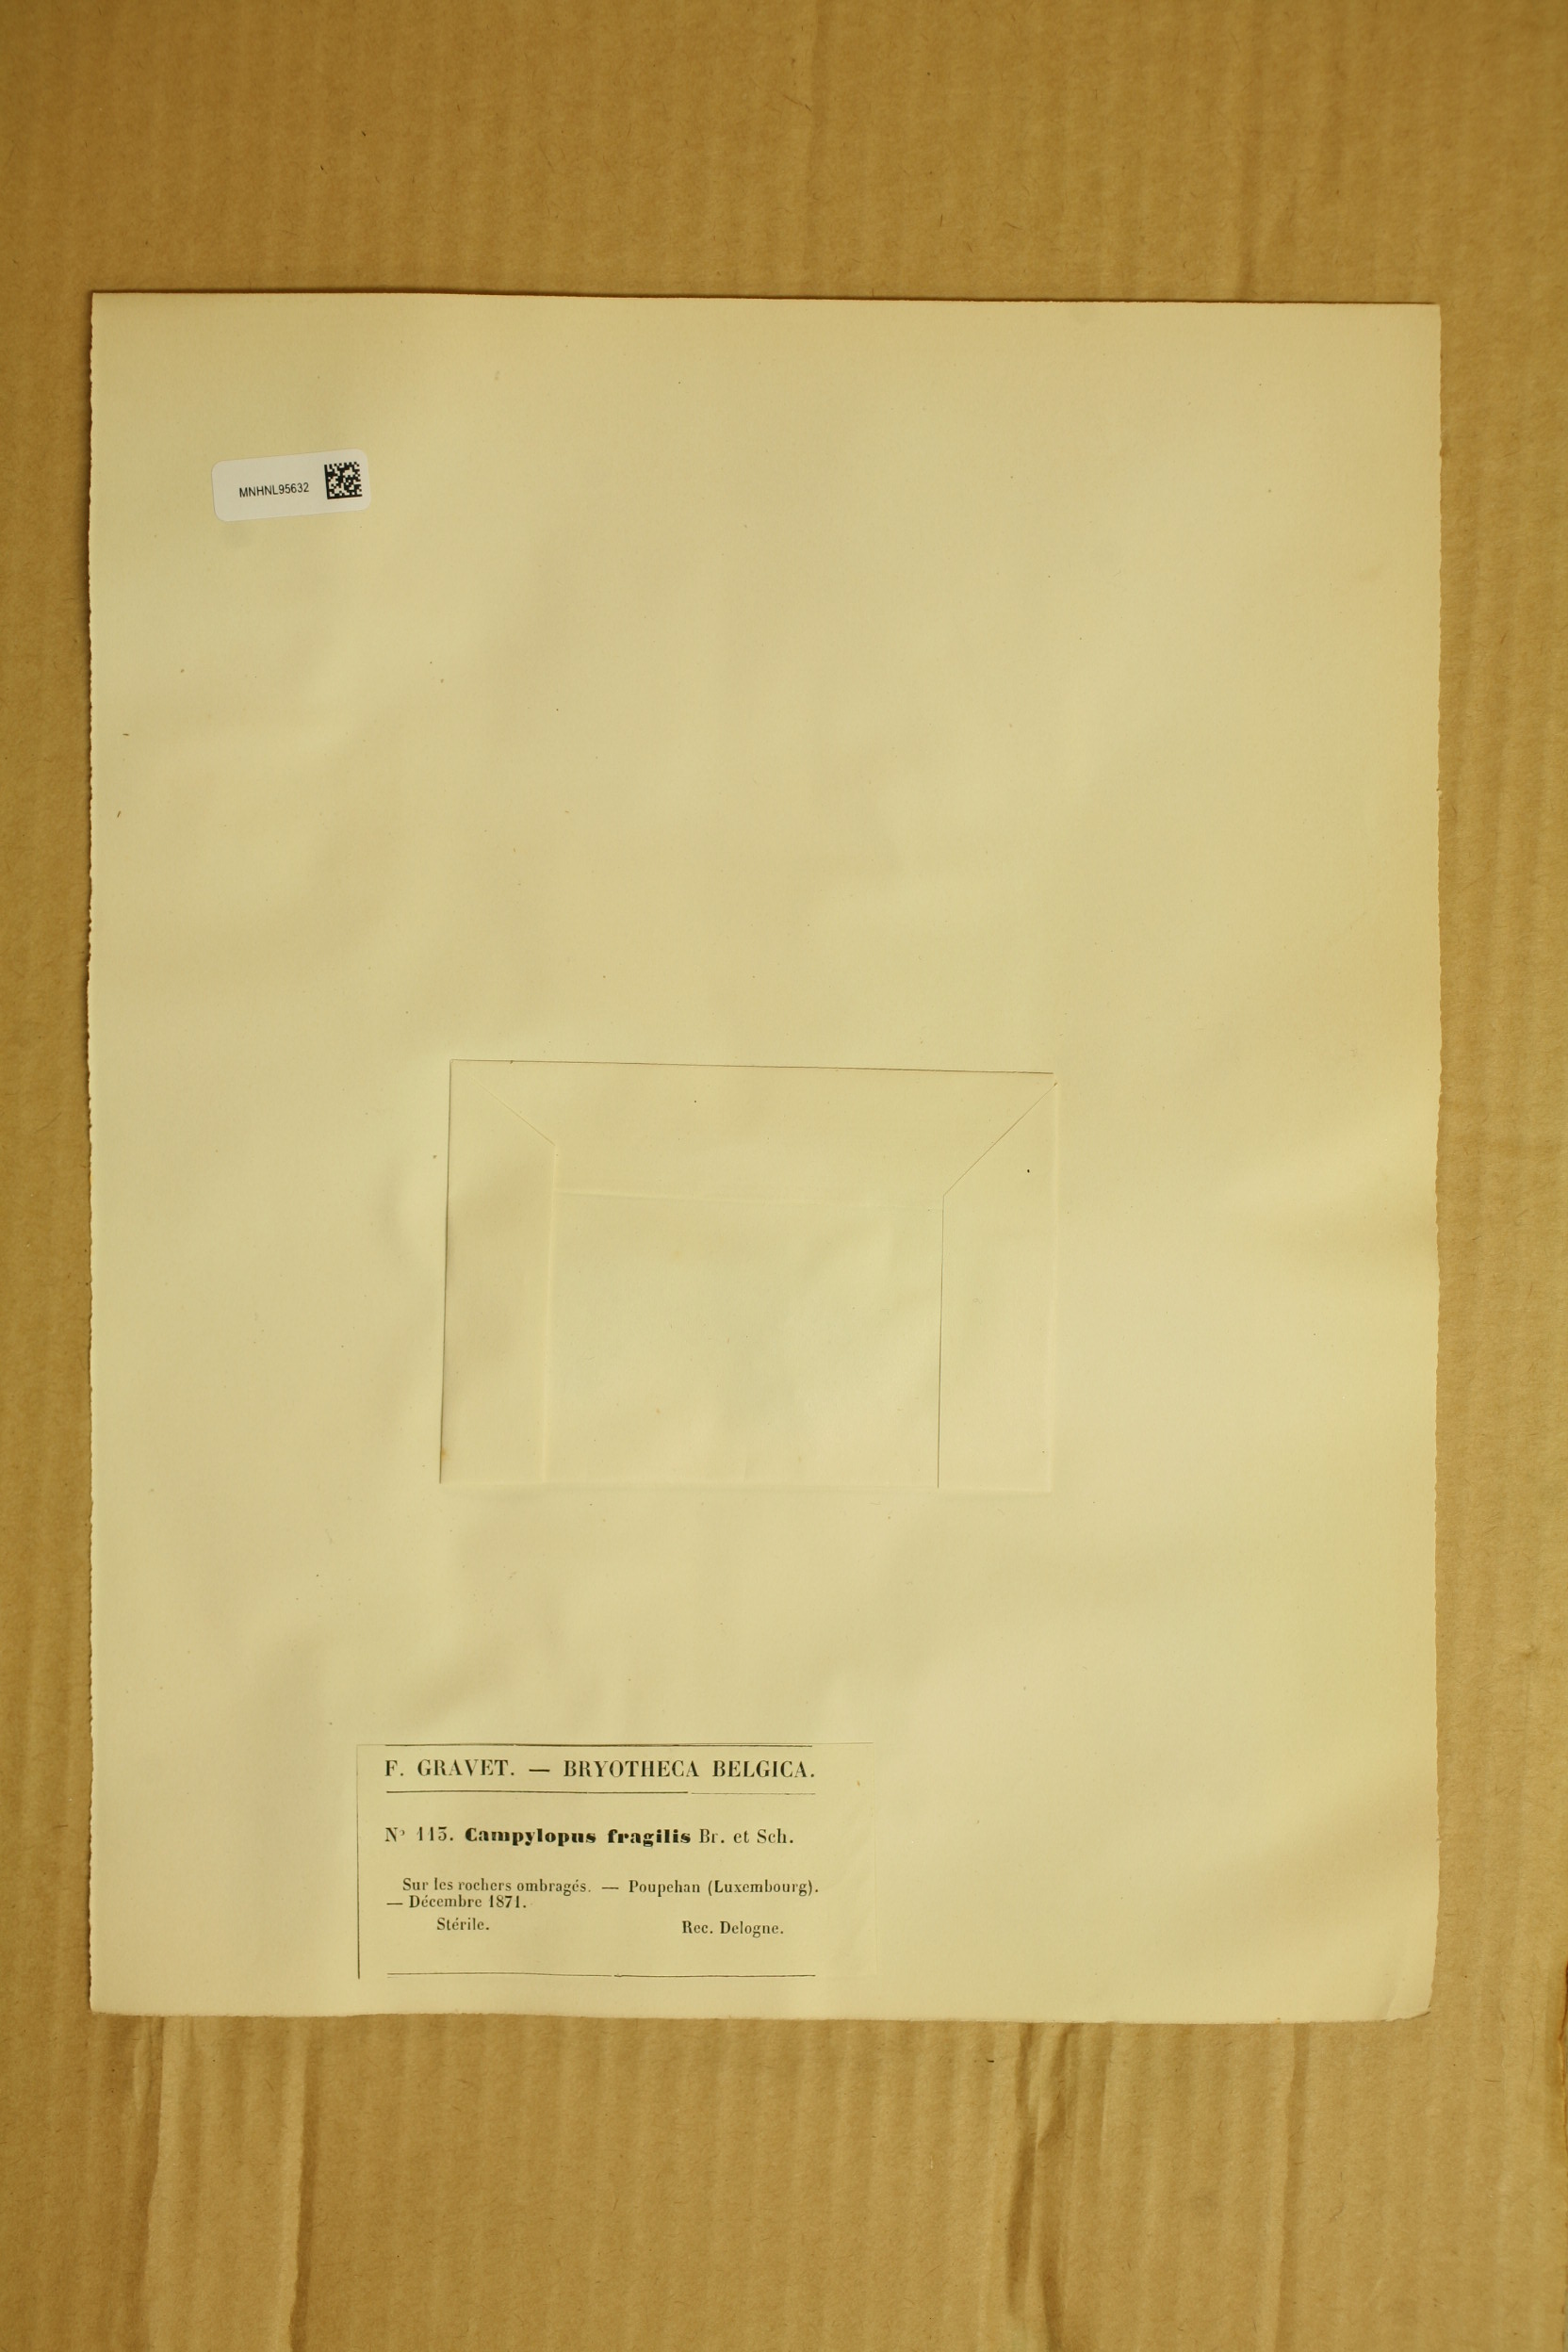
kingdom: Plantae
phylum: Bryophyta
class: Bryopsida
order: Dicranales
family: Leucobryaceae
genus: Campylopus
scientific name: Campylopus fragilis
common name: Brittle swan-neck moss
